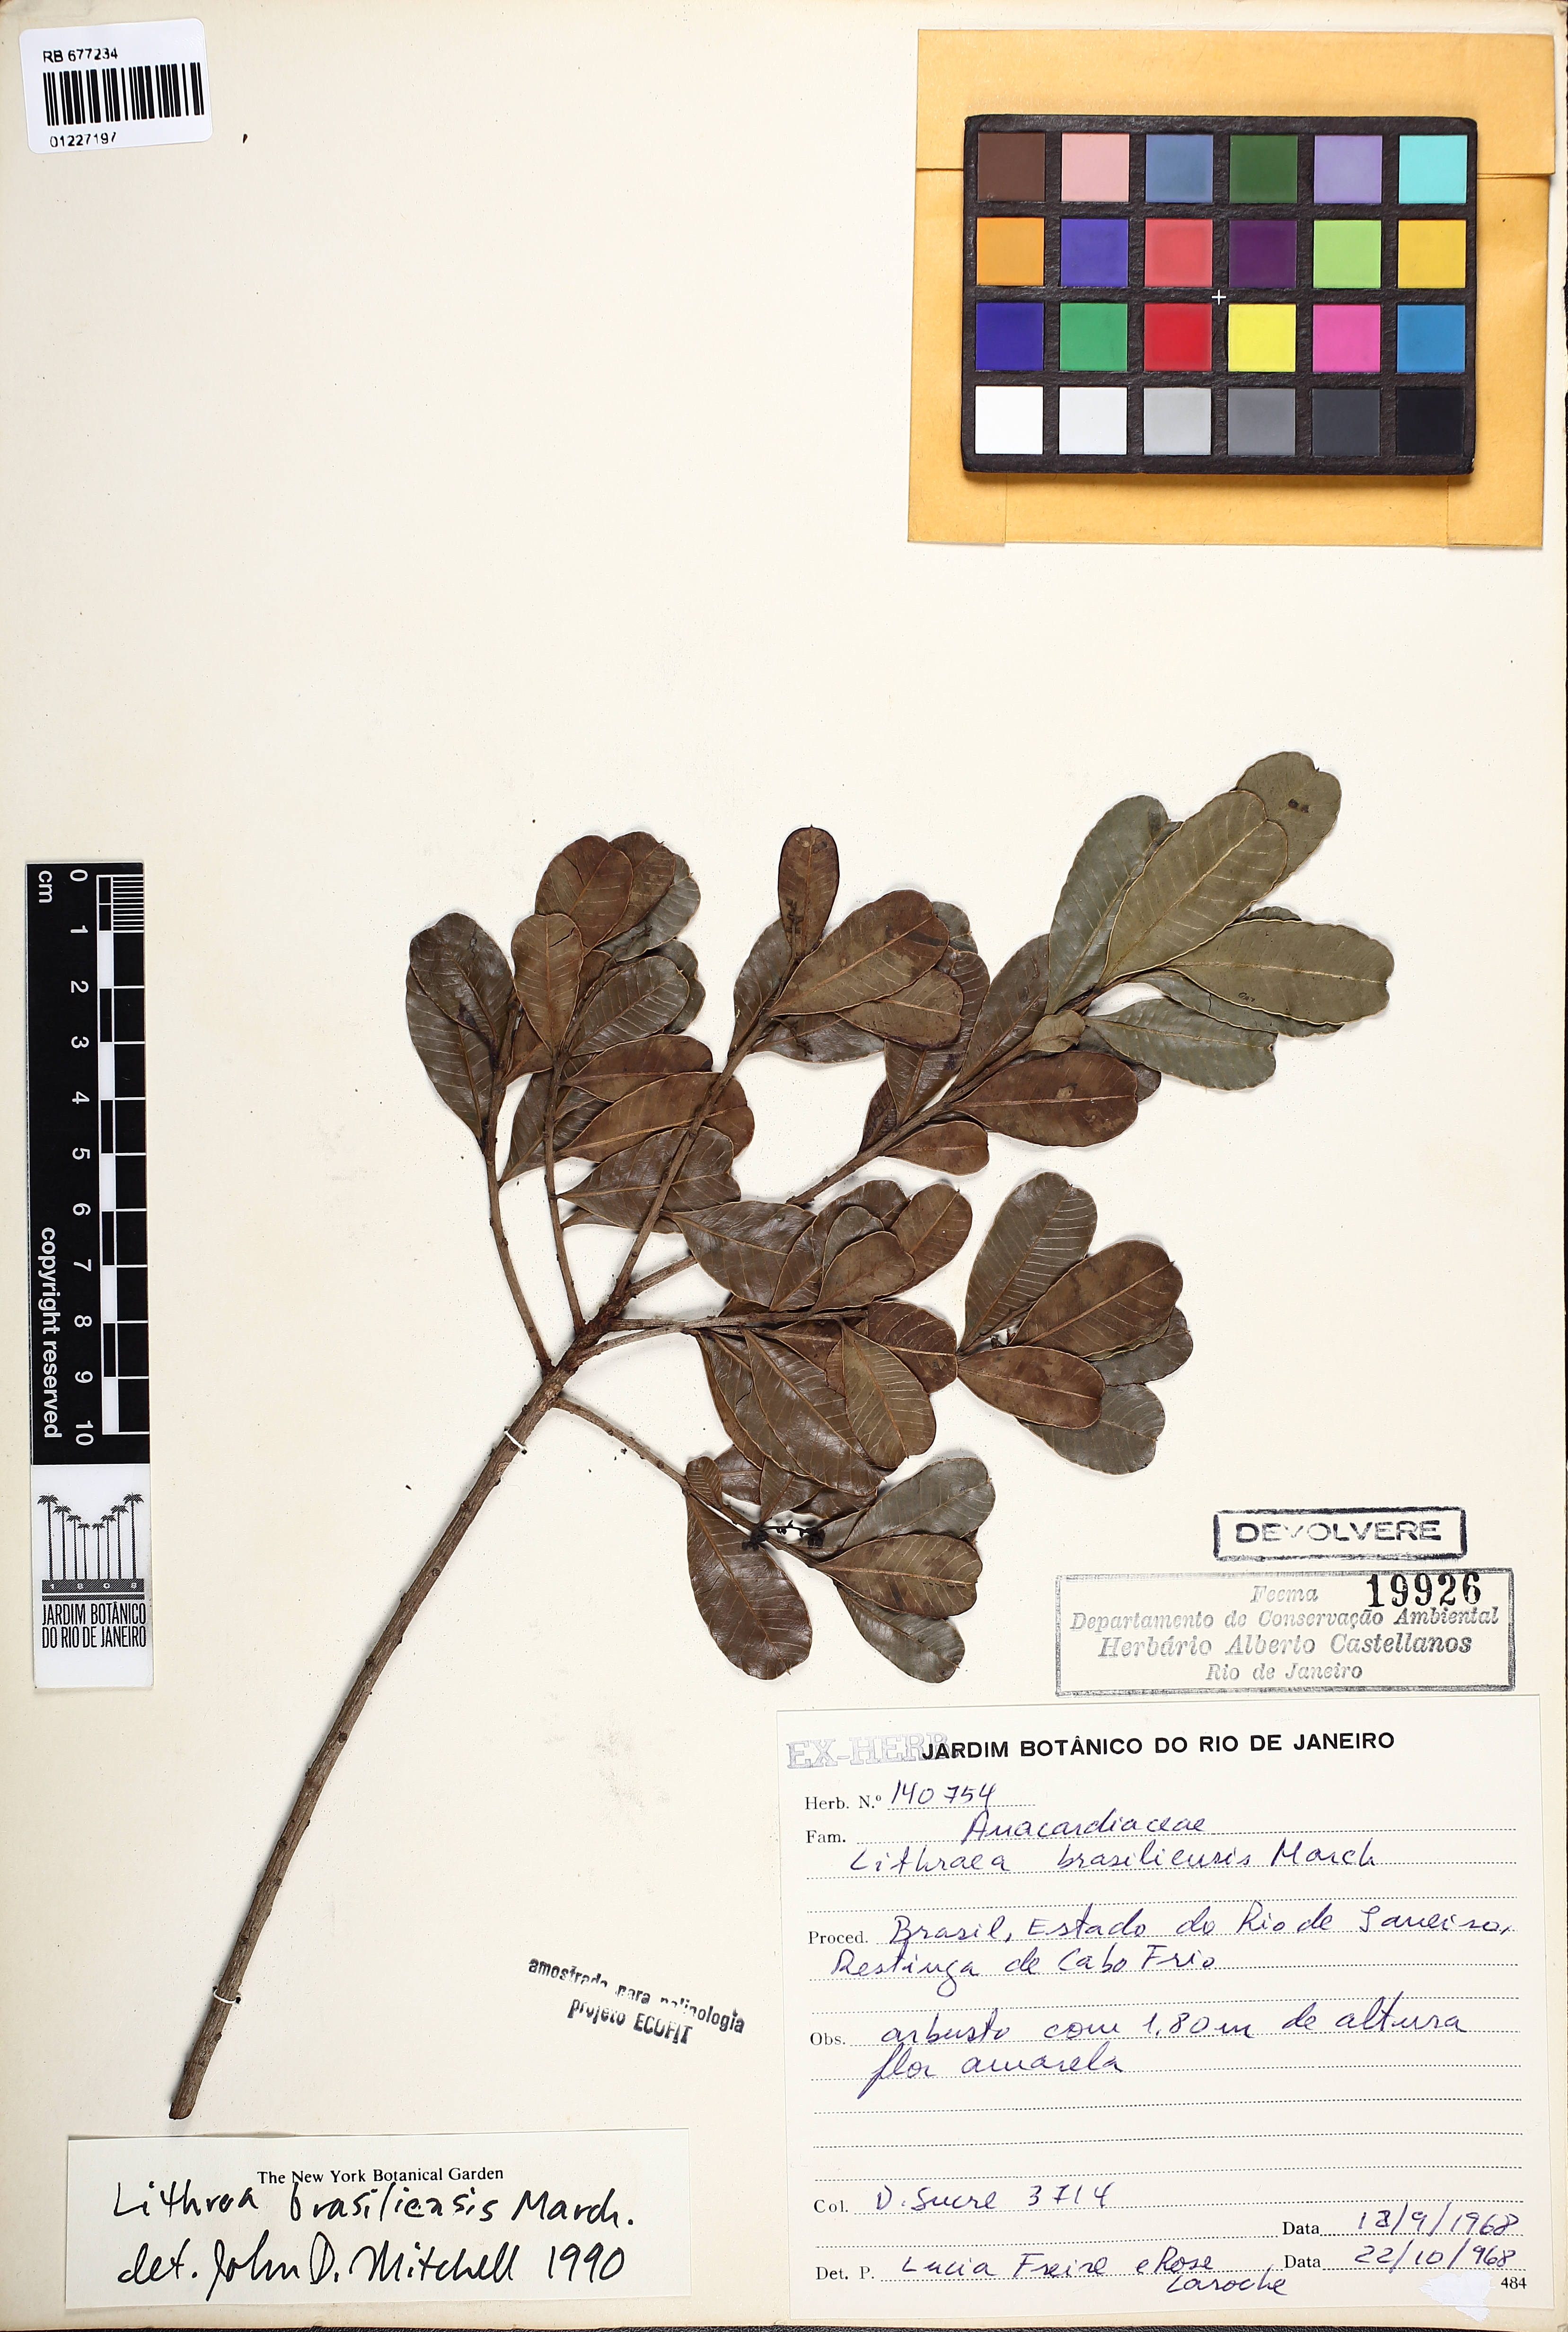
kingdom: Plantae
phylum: Tracheophyta
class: Magnoliopsida
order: Sapindales
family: Anacardiaceae
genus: Lithraea
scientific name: Lithraea brasiliensis
